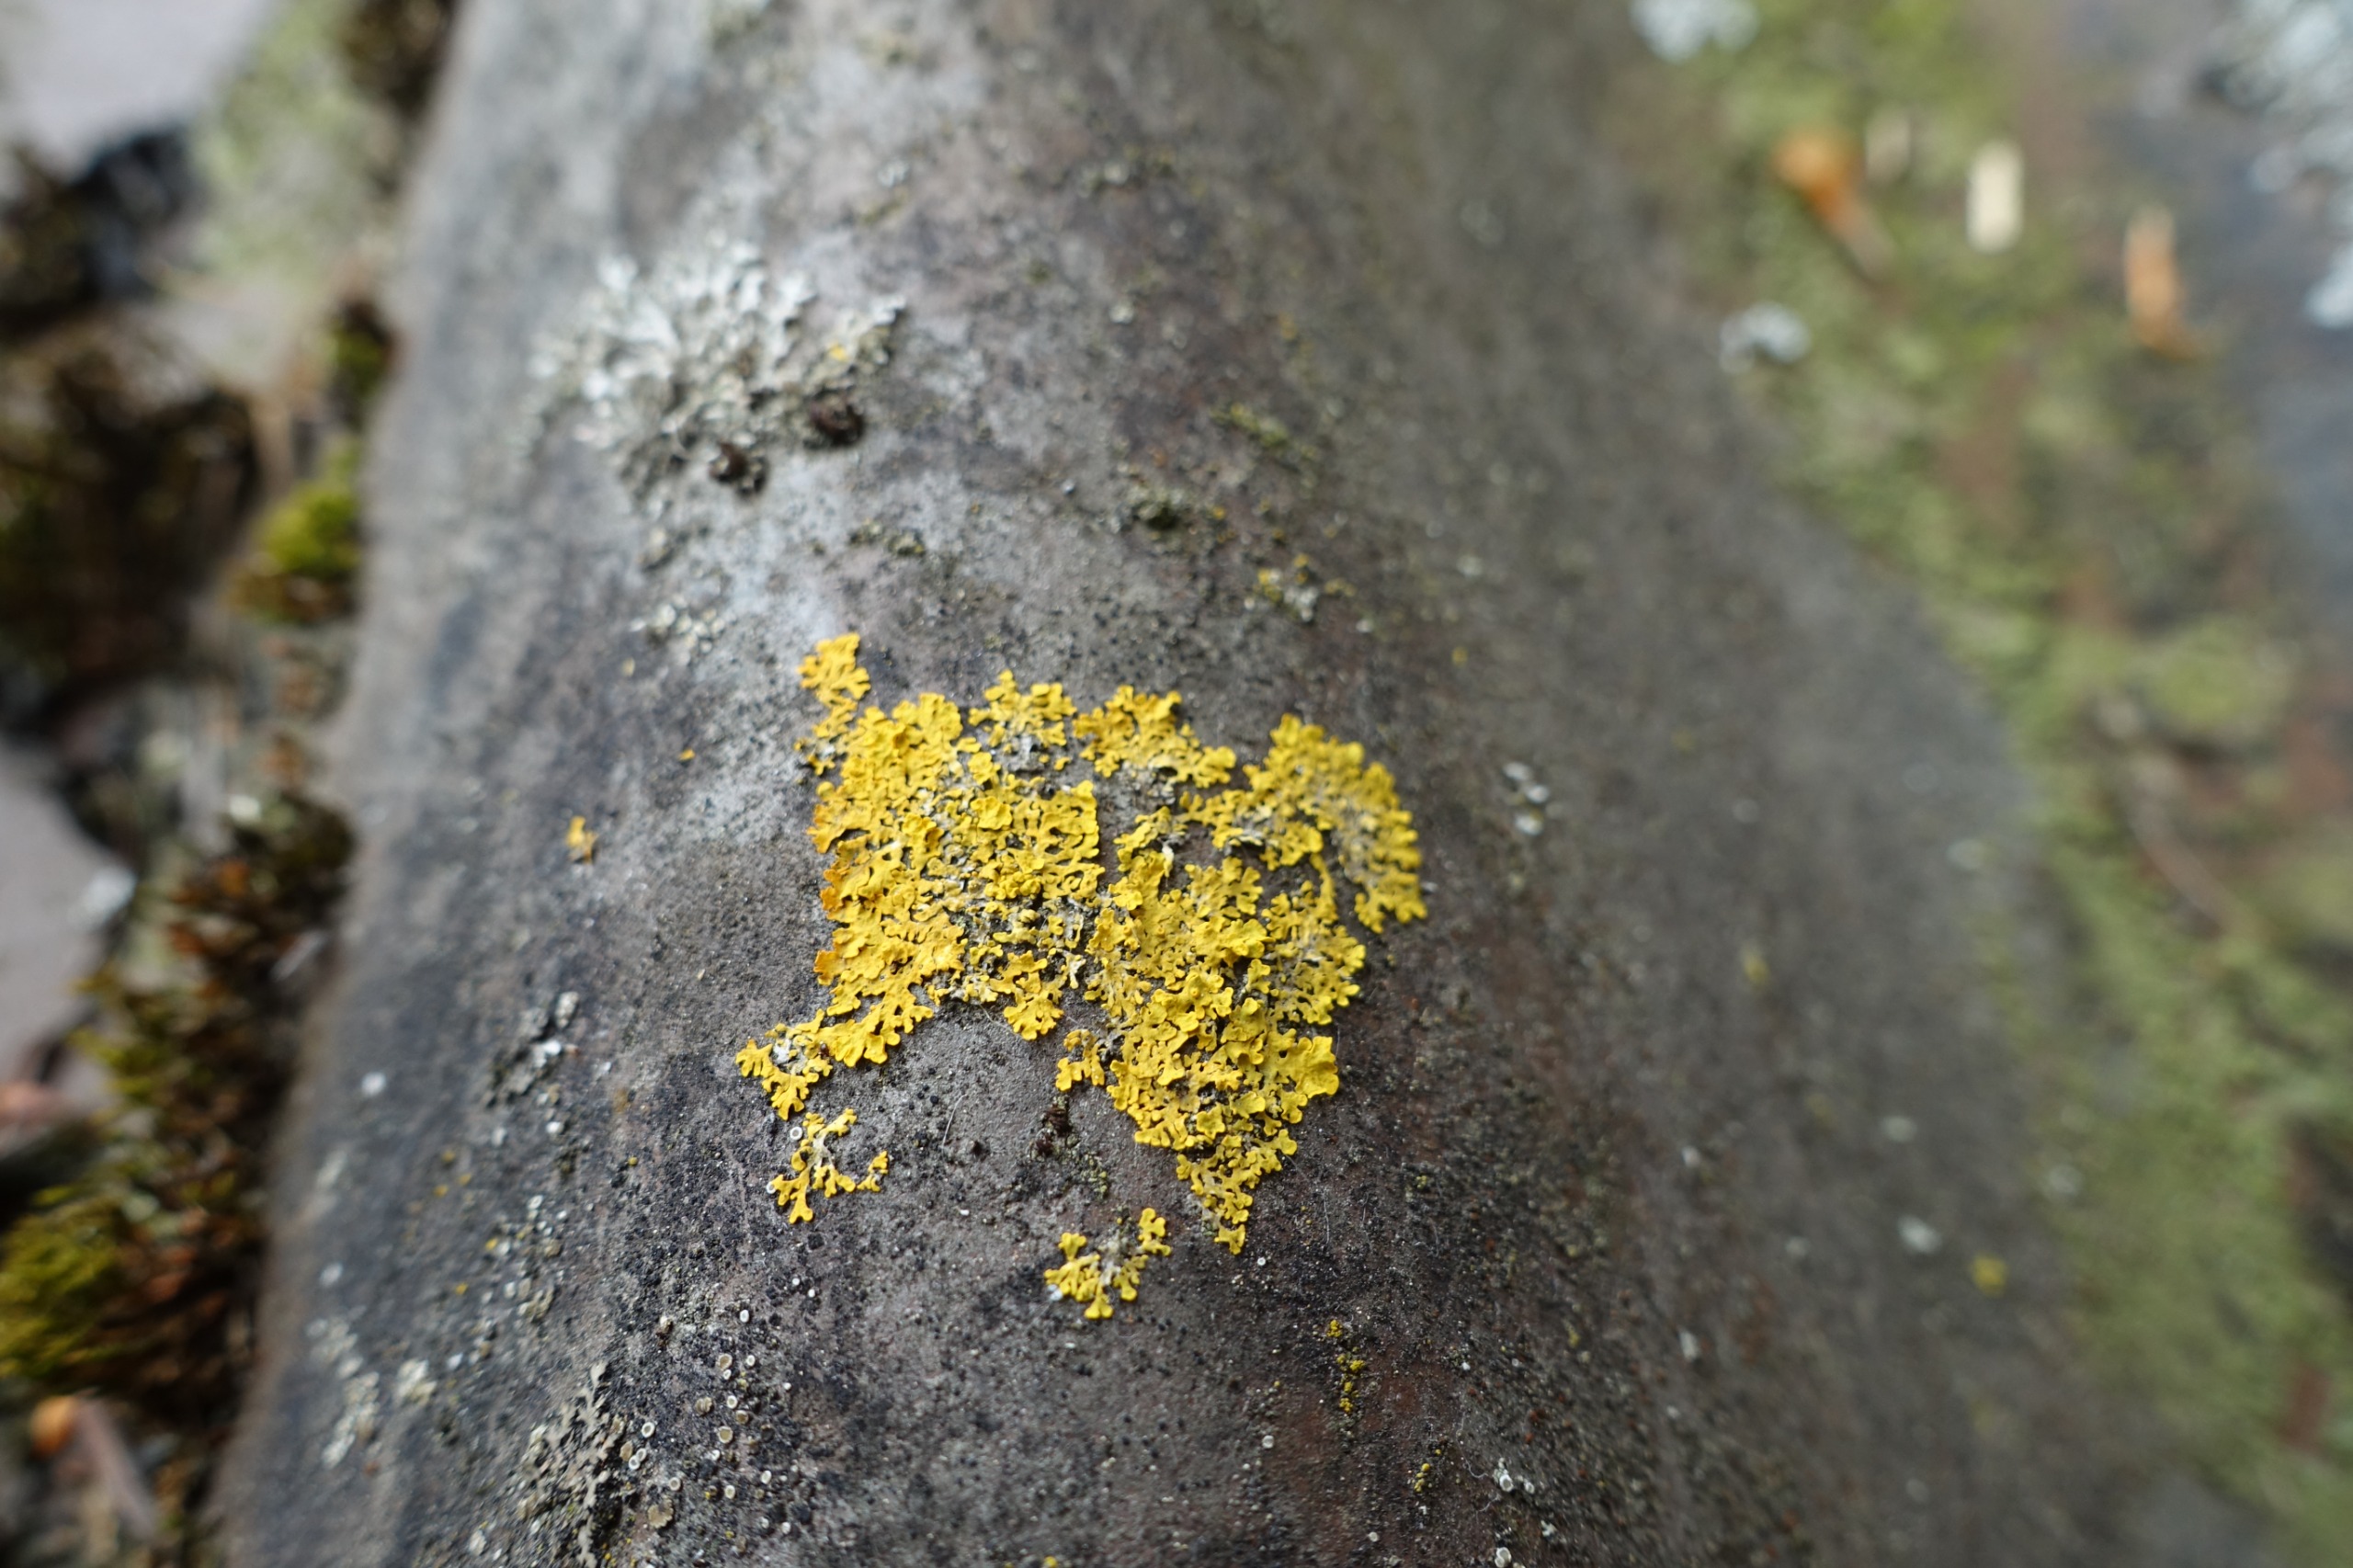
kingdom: Fungi
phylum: Ascomycota
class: Lecanoromycetes
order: Teloschistales
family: Teloschistaceae
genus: Xanthoria
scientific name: Xanthoria parietina
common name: Almindelig væggelav
